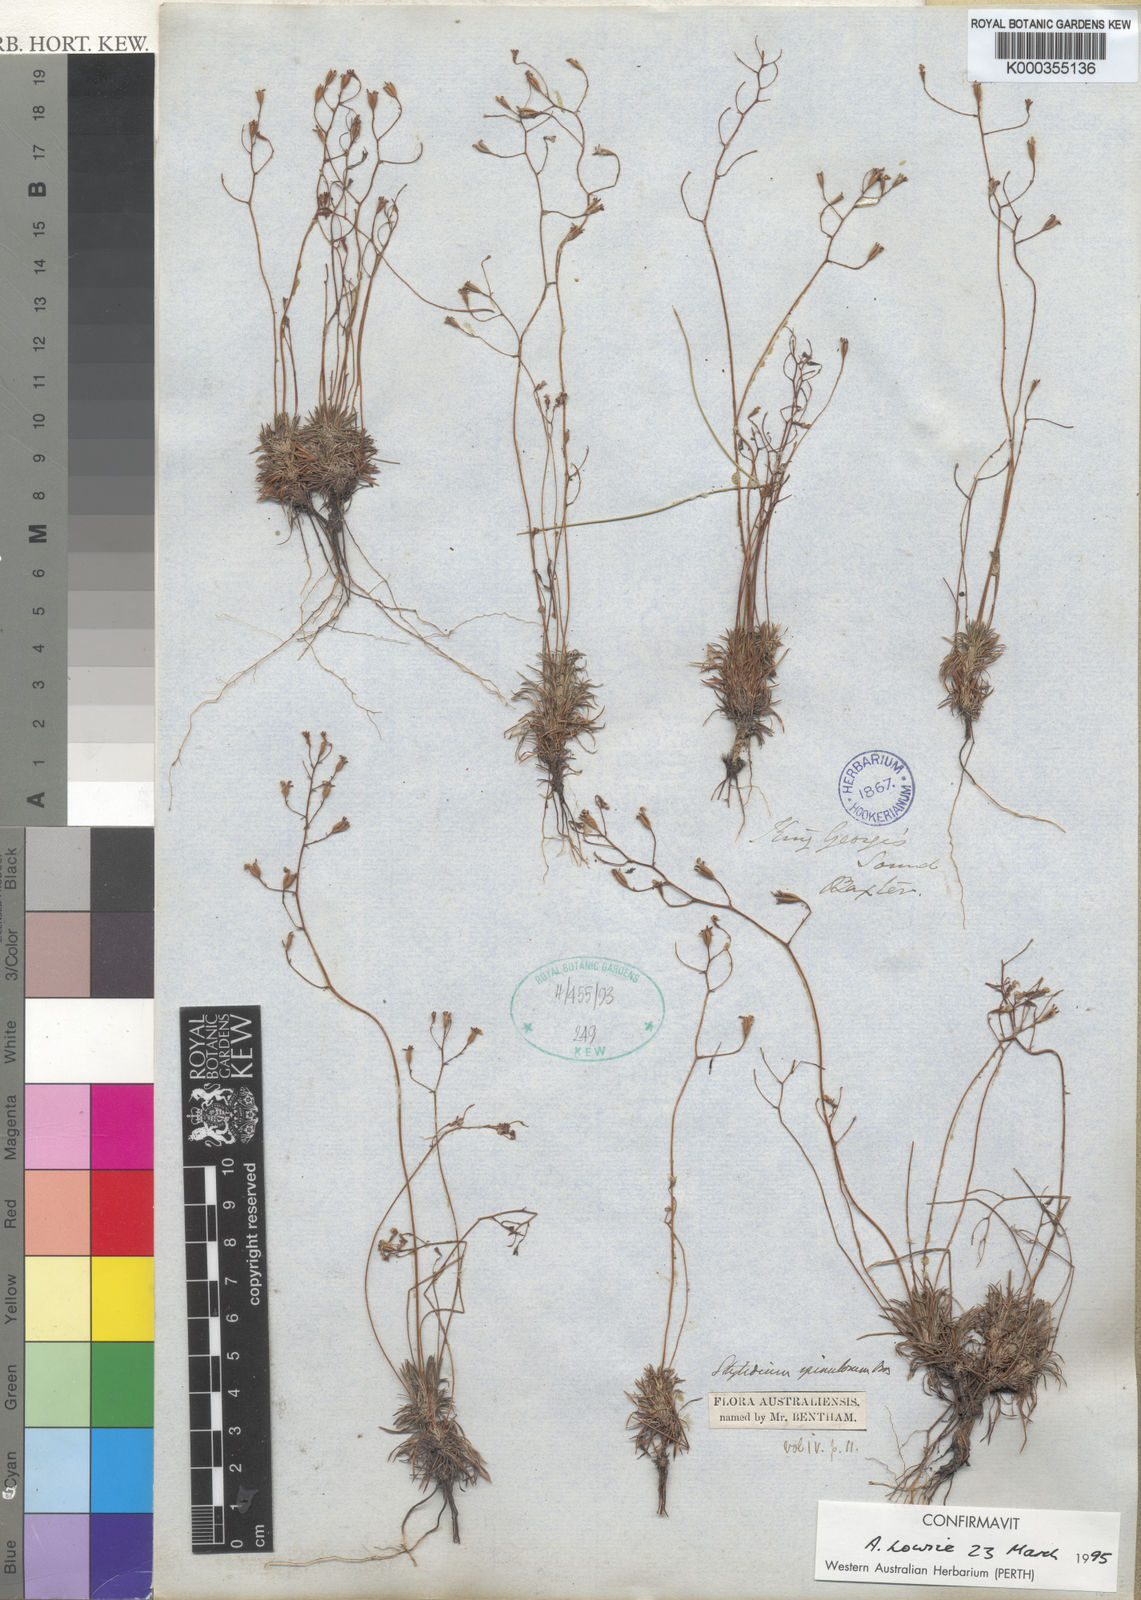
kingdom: Plantae
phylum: Tracheophyta
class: Magnoliopsida
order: Asterales
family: Stylidiaceae
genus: Stylidium
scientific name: Stylidium spinulosum
